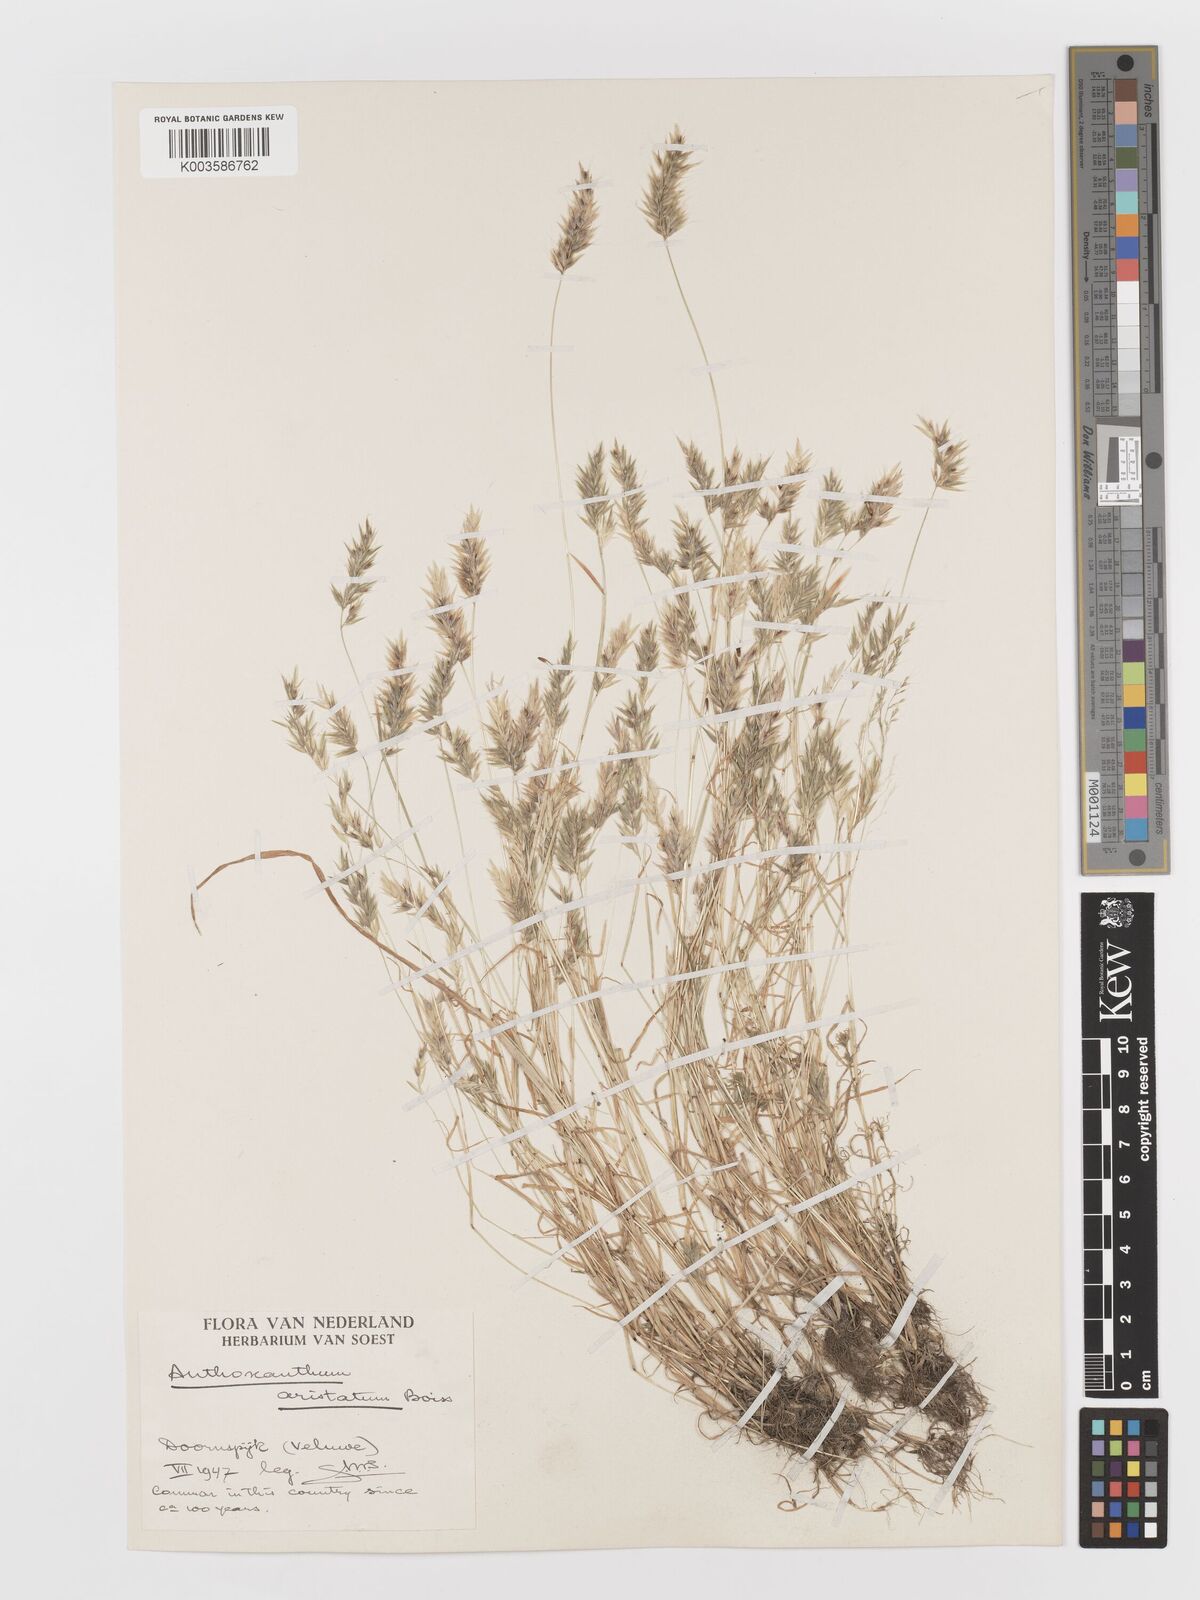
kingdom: Plantae
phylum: Tracheophyta
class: Liliopsida
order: Poales
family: Poaceae
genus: Anthoxanthum
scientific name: Anthoxanthum aristatum
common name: Annual vernal-grass
